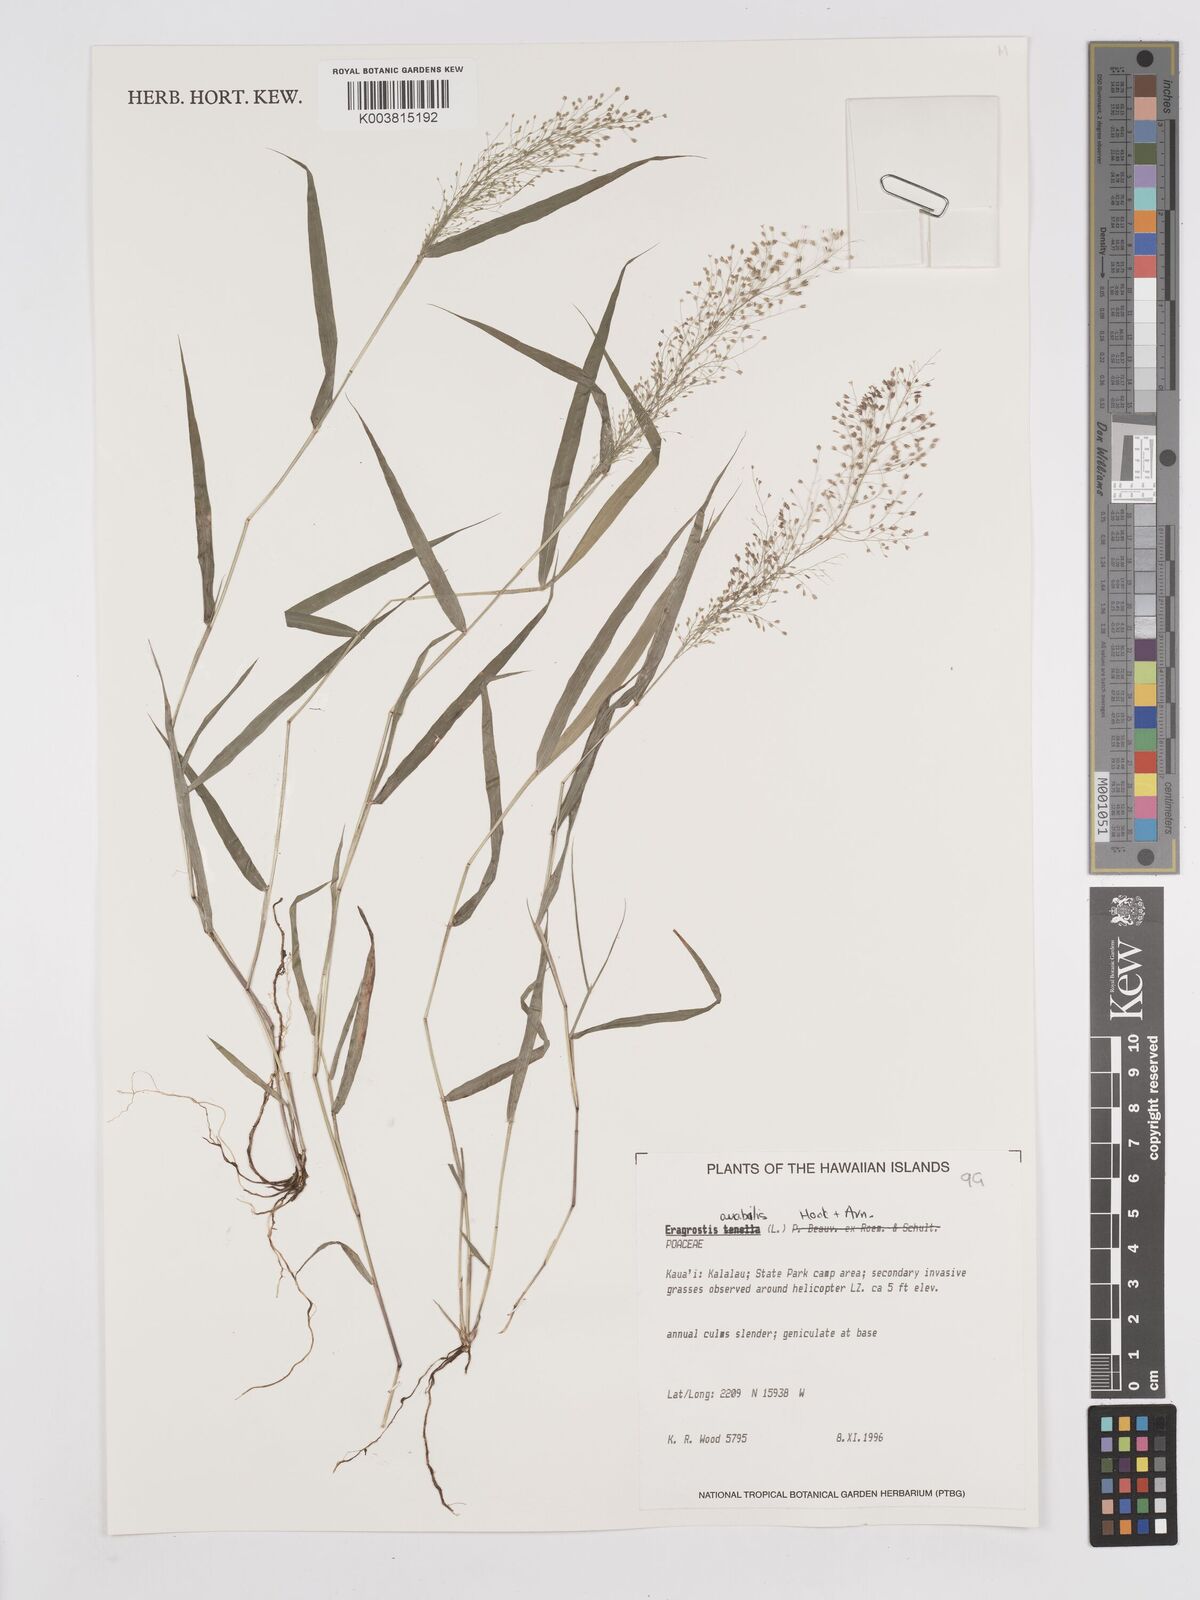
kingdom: Plantae
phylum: Tracheophyta
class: Liliopsida
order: Poales
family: Poaceae
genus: Eragrostis
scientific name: Eragrostis tenella
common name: Japanese lovegrass
